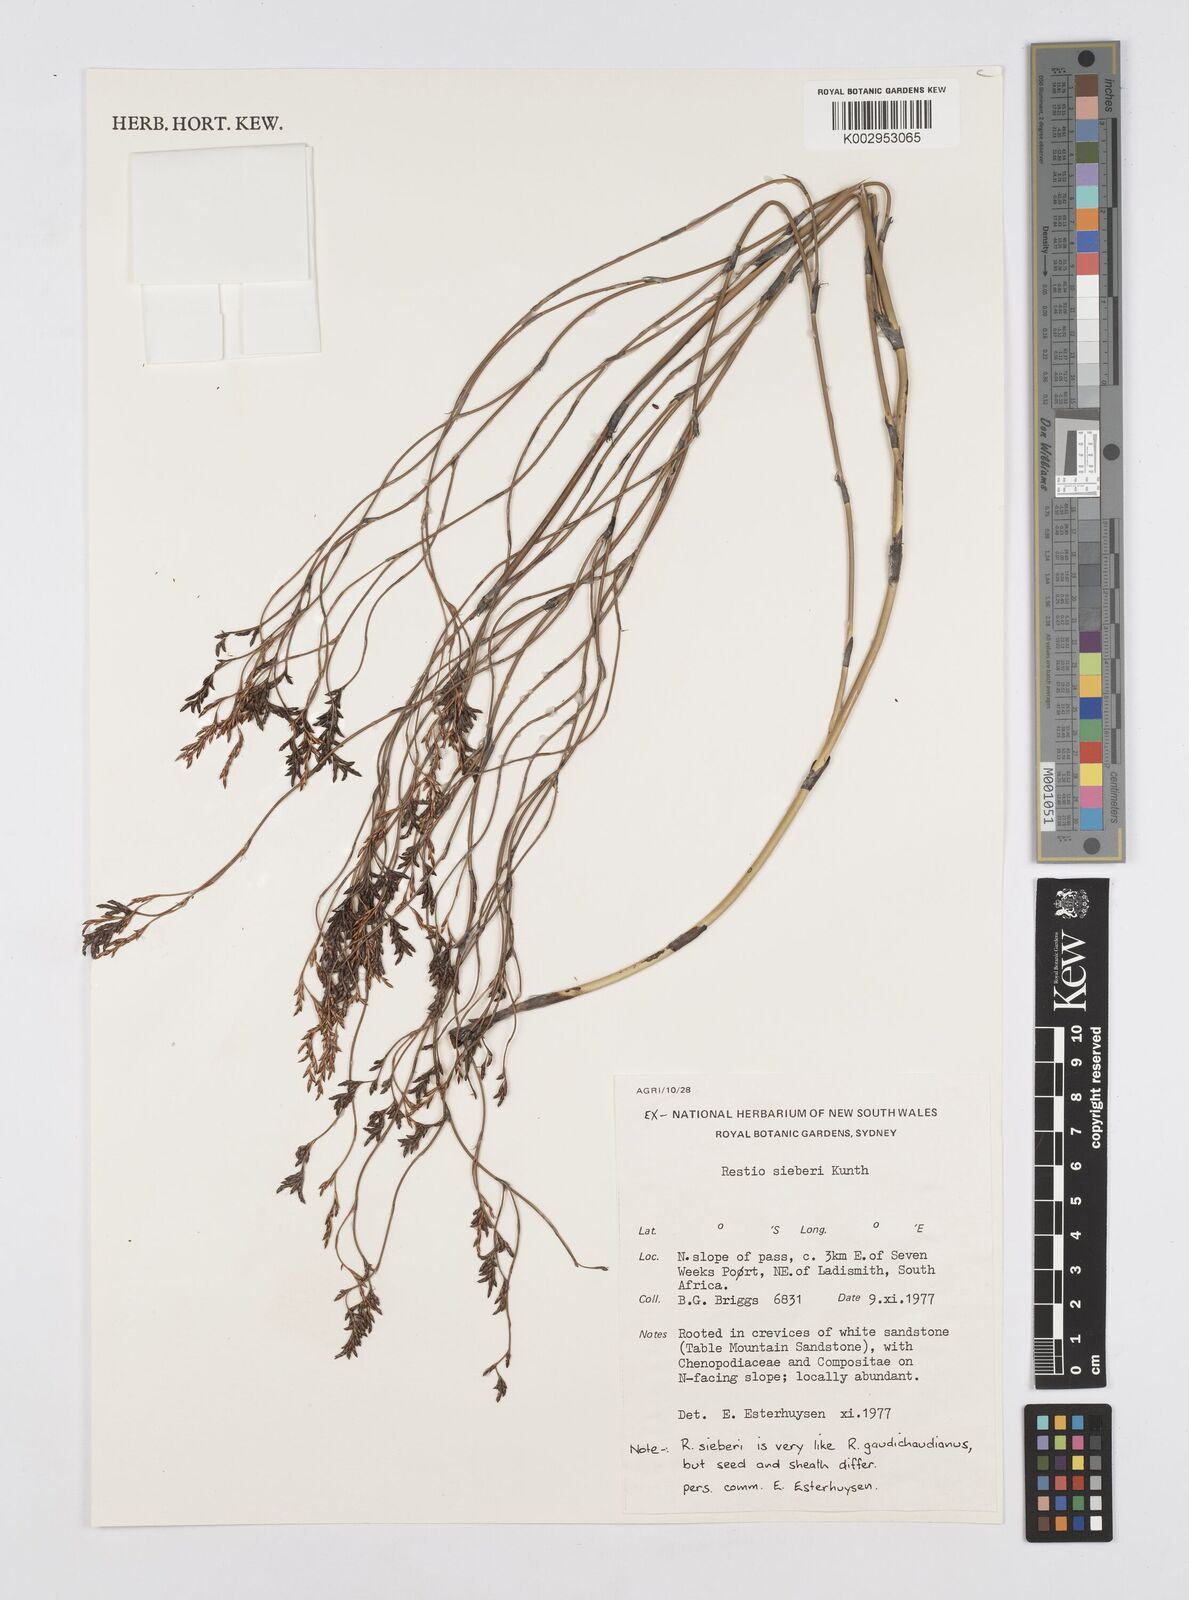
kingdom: Plantae
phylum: Tracheophyta
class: Liliopsida
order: Poales
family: Restionaceae
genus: Restio
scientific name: Restio sieberi
